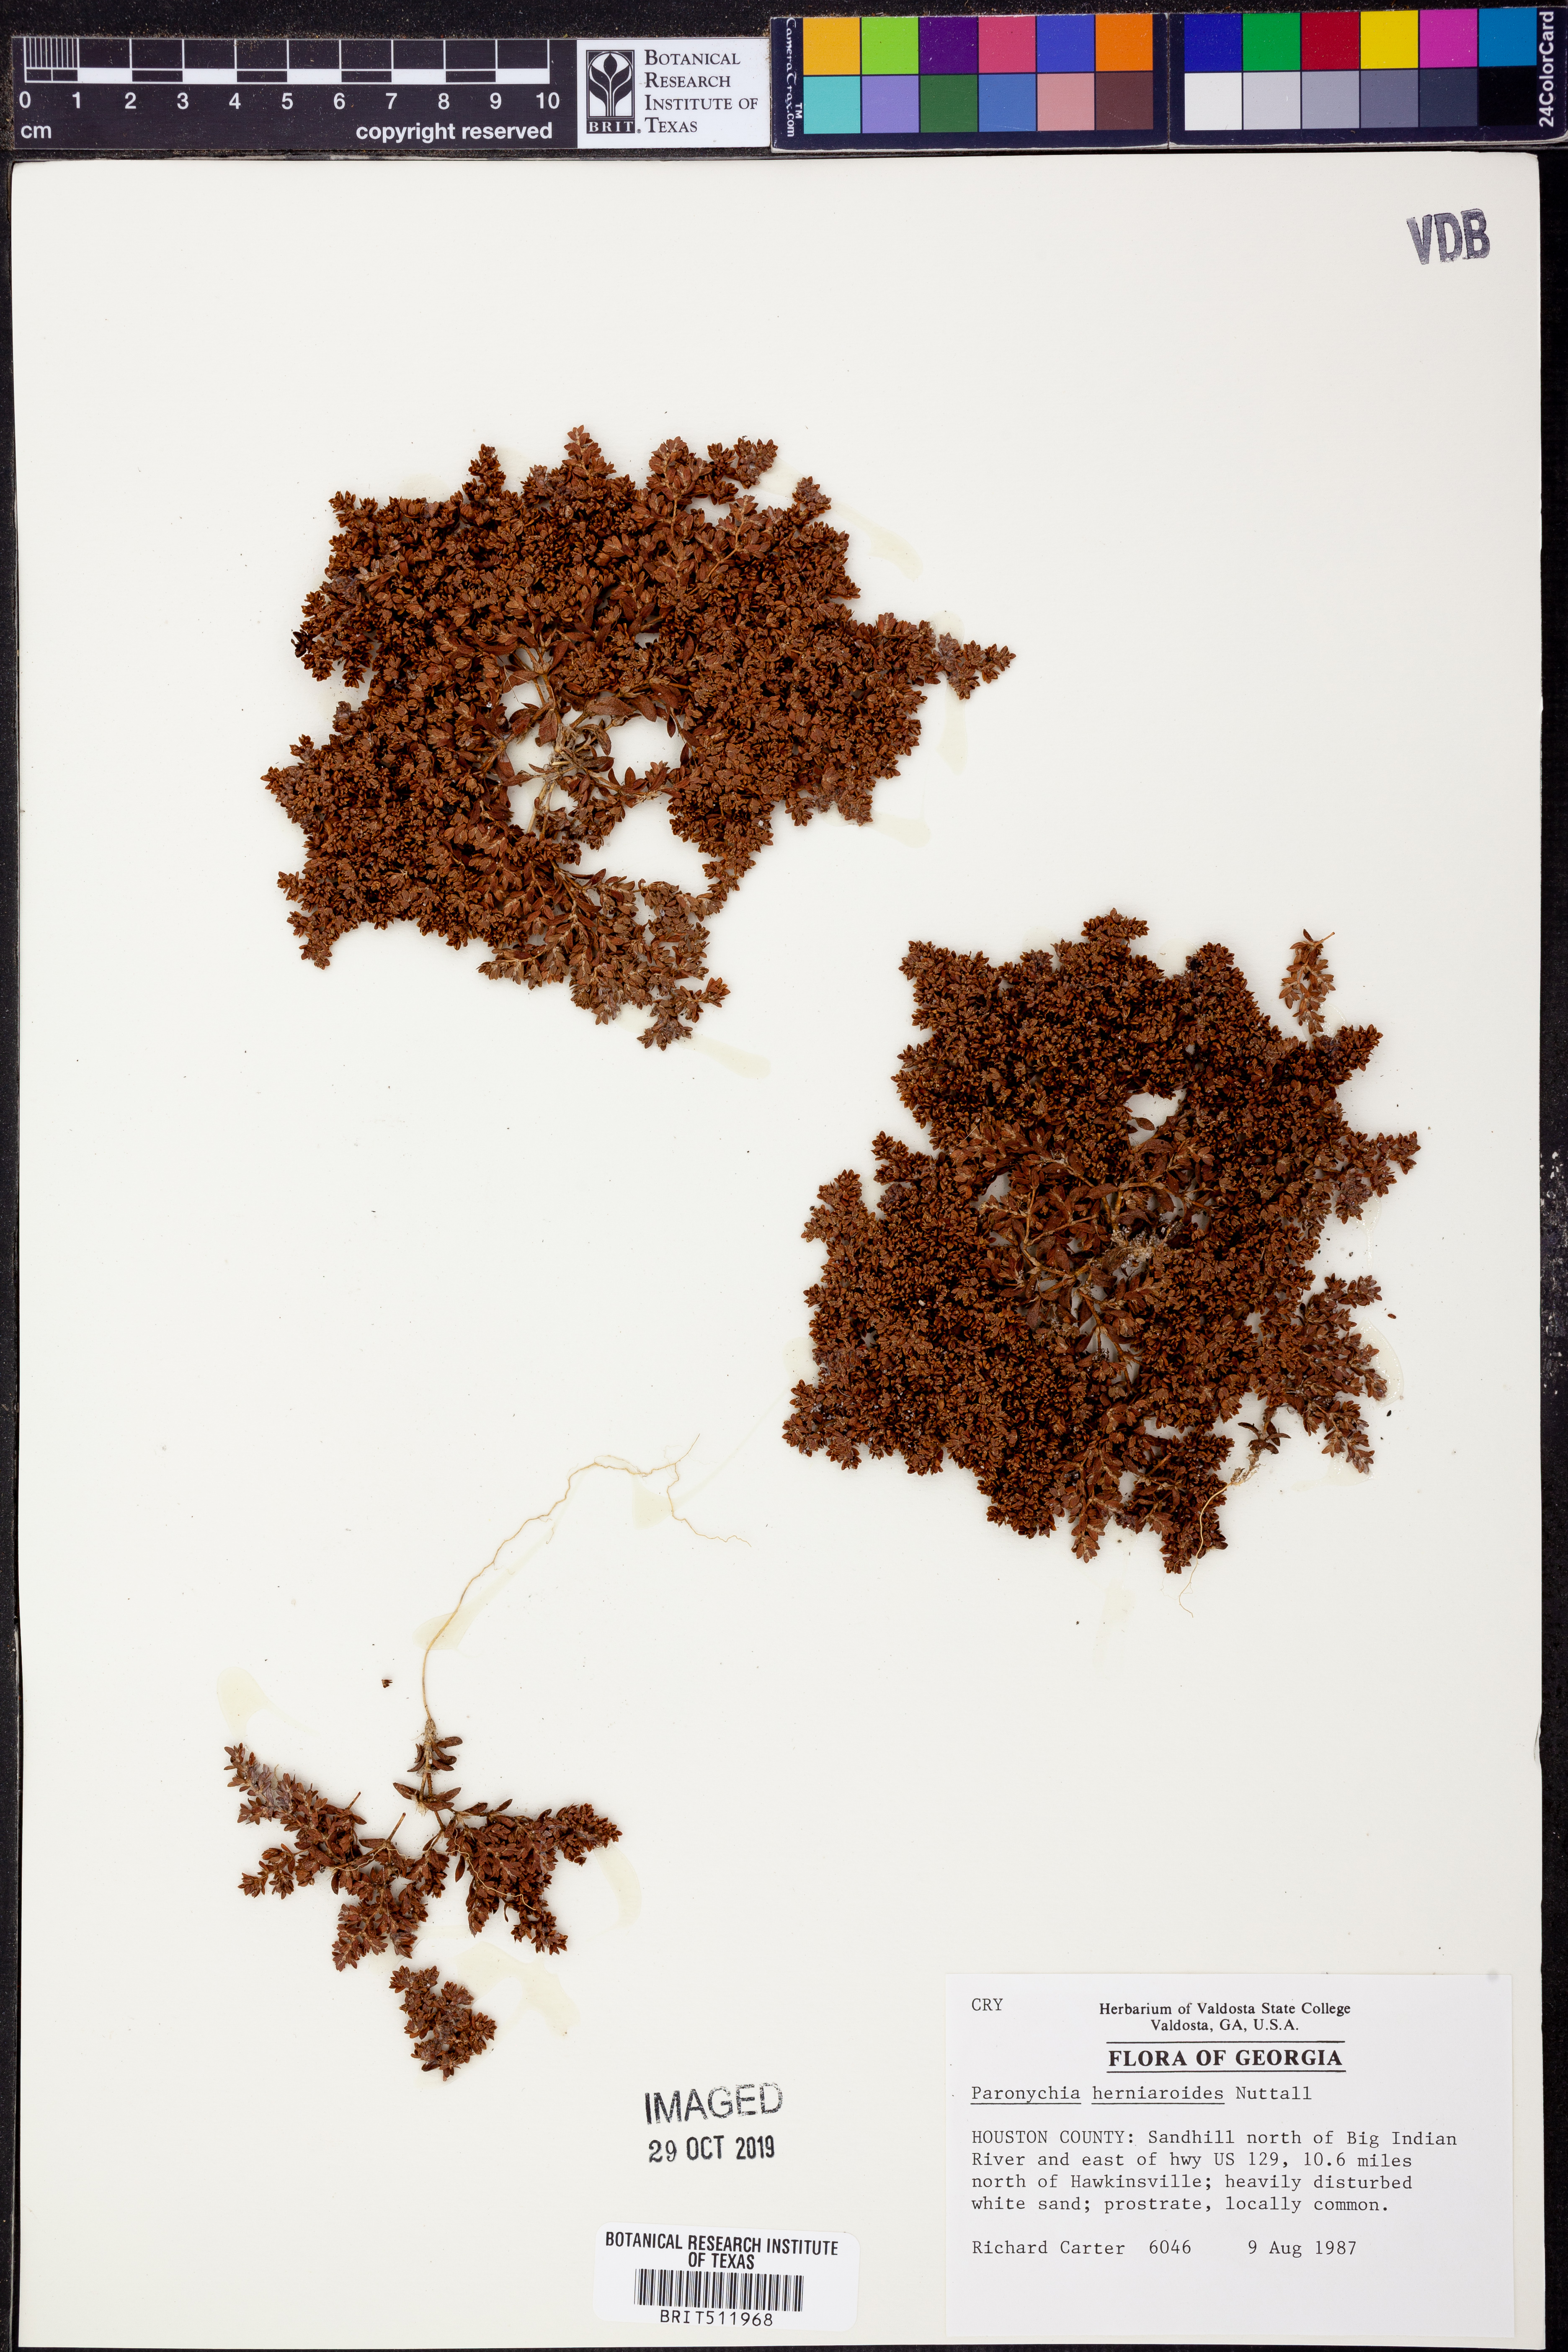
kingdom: Plantae
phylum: Tracheophyta
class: Magnoliopsida
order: Caryophyllales
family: Caryophyllaceae
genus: Paronychia
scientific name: Paronychia herniarioides
